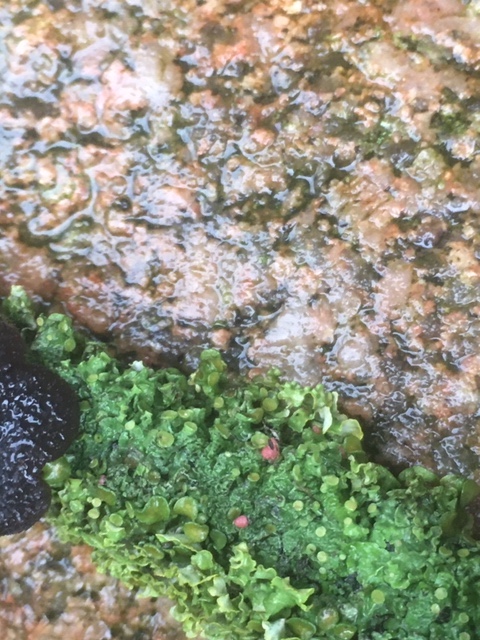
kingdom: Fungi
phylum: Ascomycota
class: Sordariomycetes
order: Hypocreales
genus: Illosporiopsis
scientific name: Illosporiopsis christiansenii
